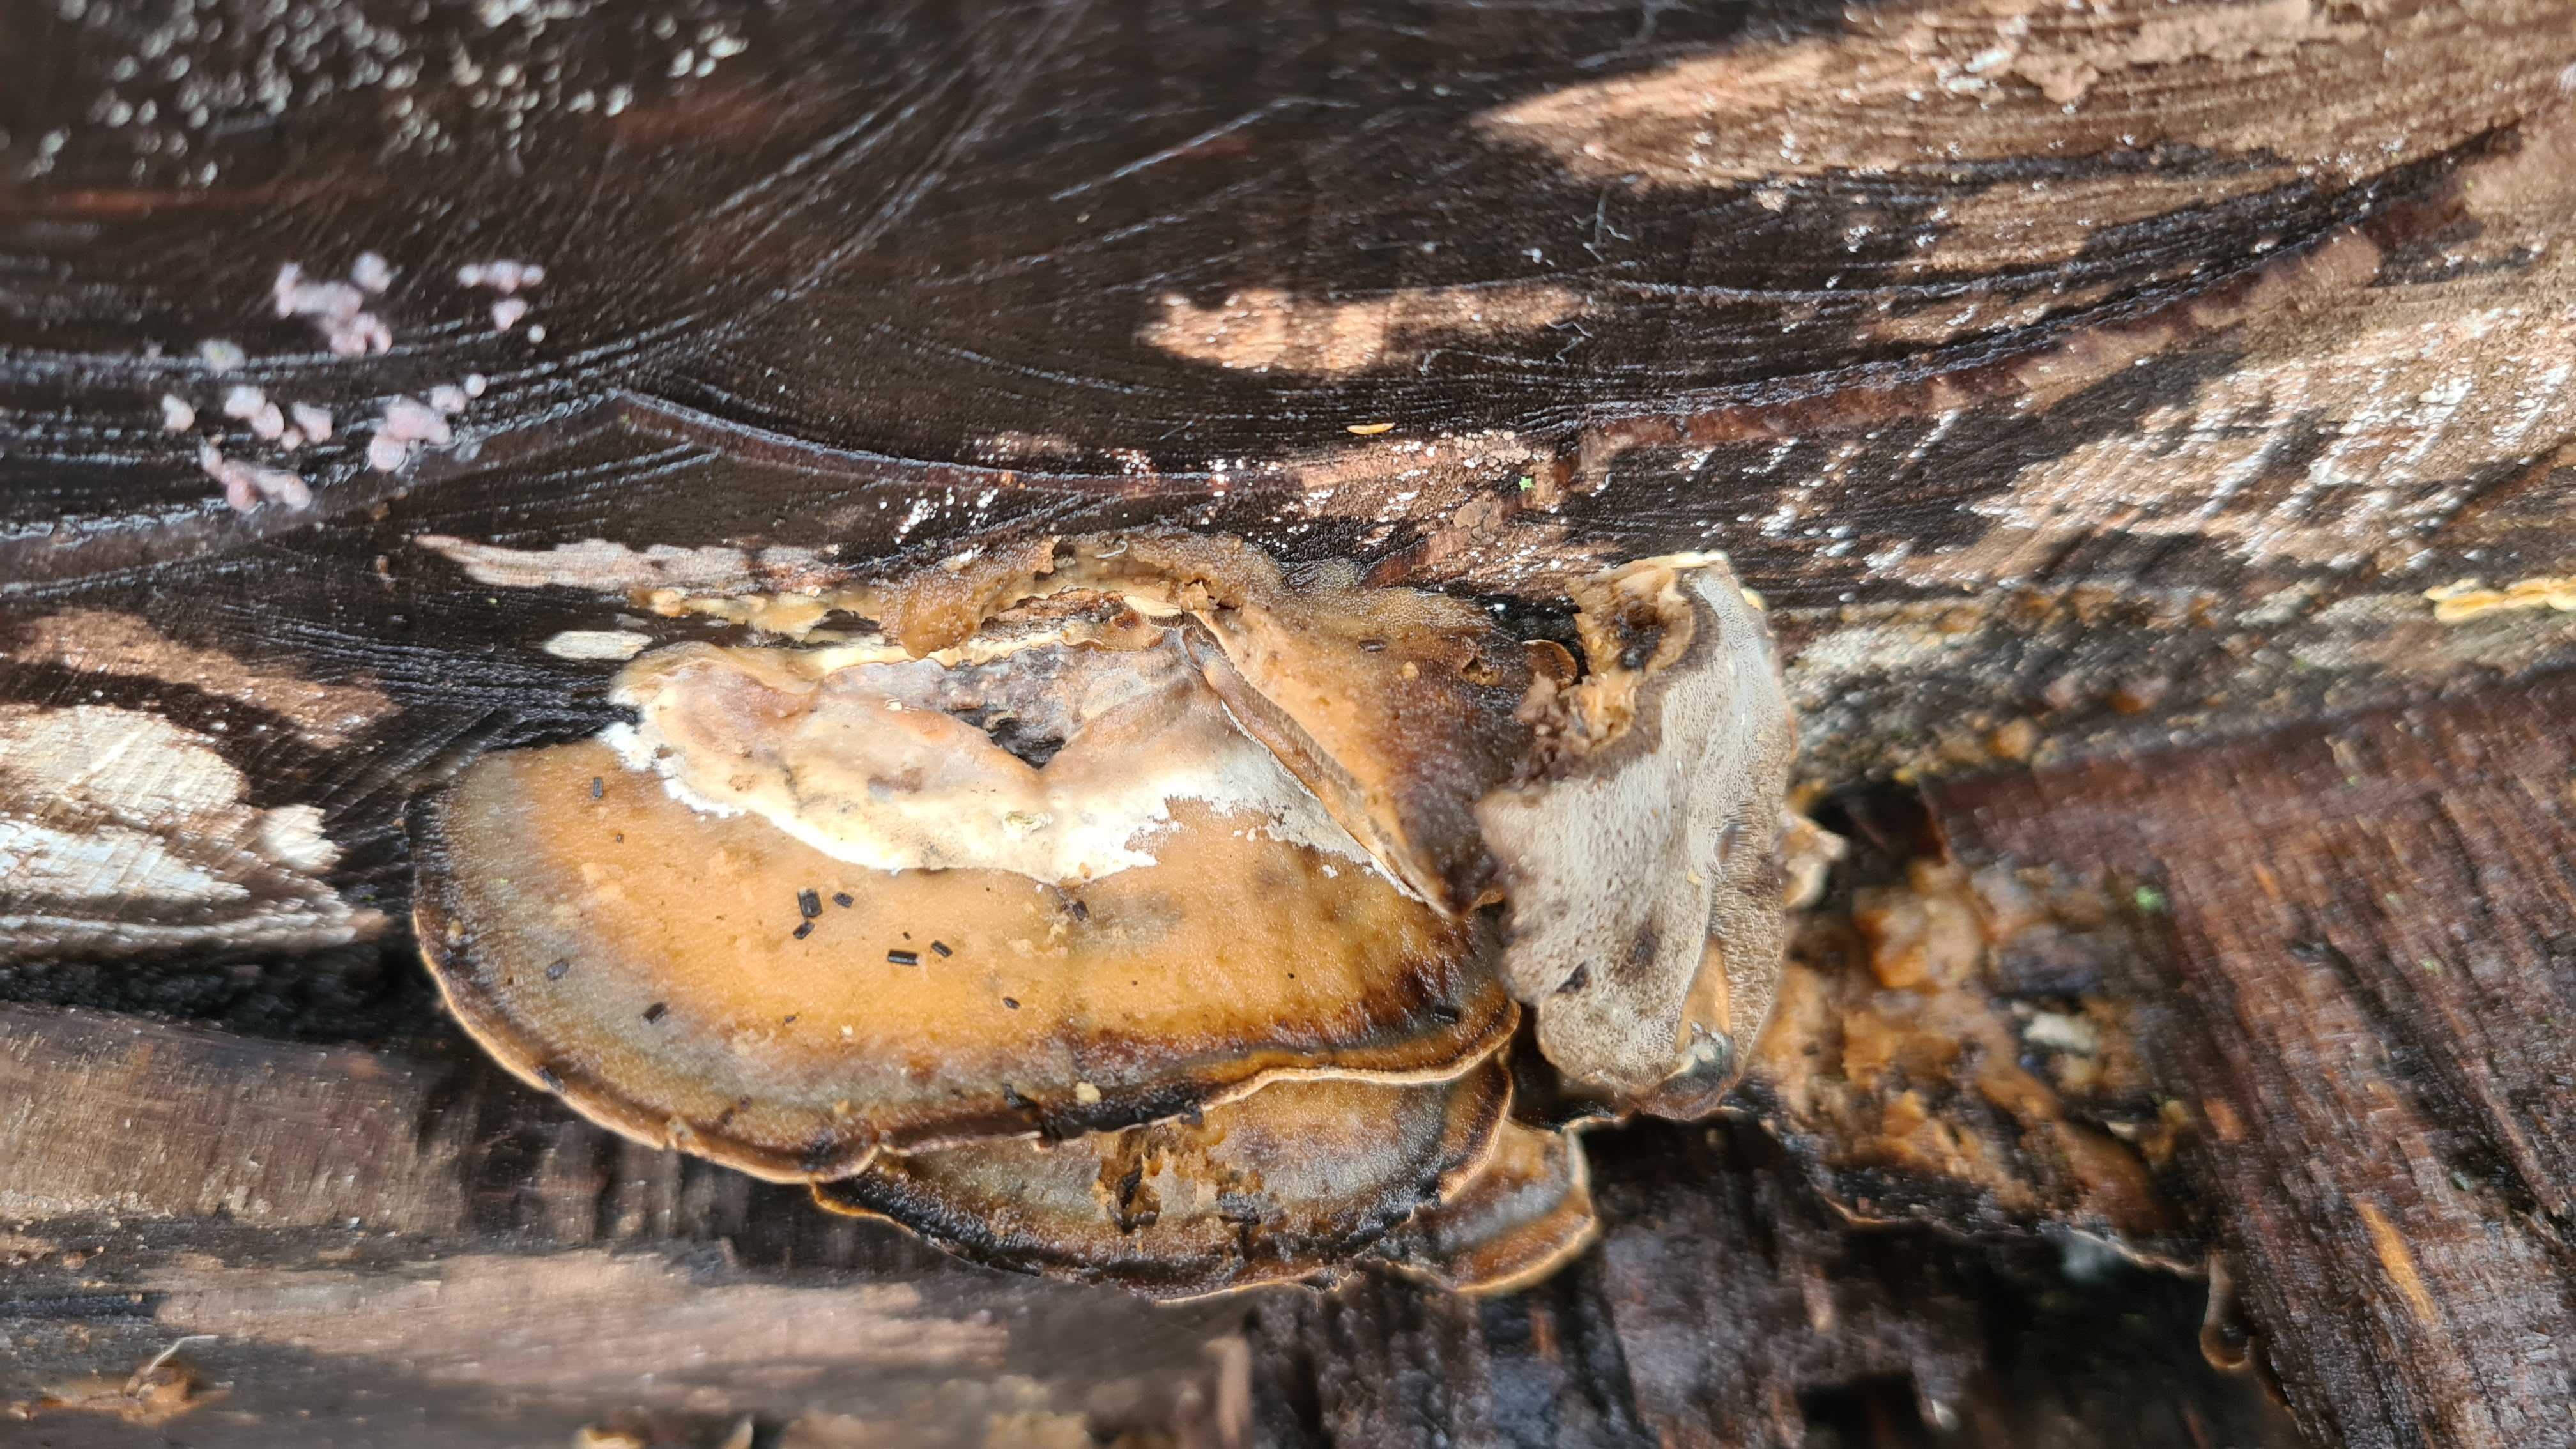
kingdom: Fungi
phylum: Basidiomycota
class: Agaricomycetes
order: Polyporales
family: Phanerochaetaceae
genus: Bjerkandera
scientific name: Bjerkandera adusta
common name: sveden sodporesvamp
